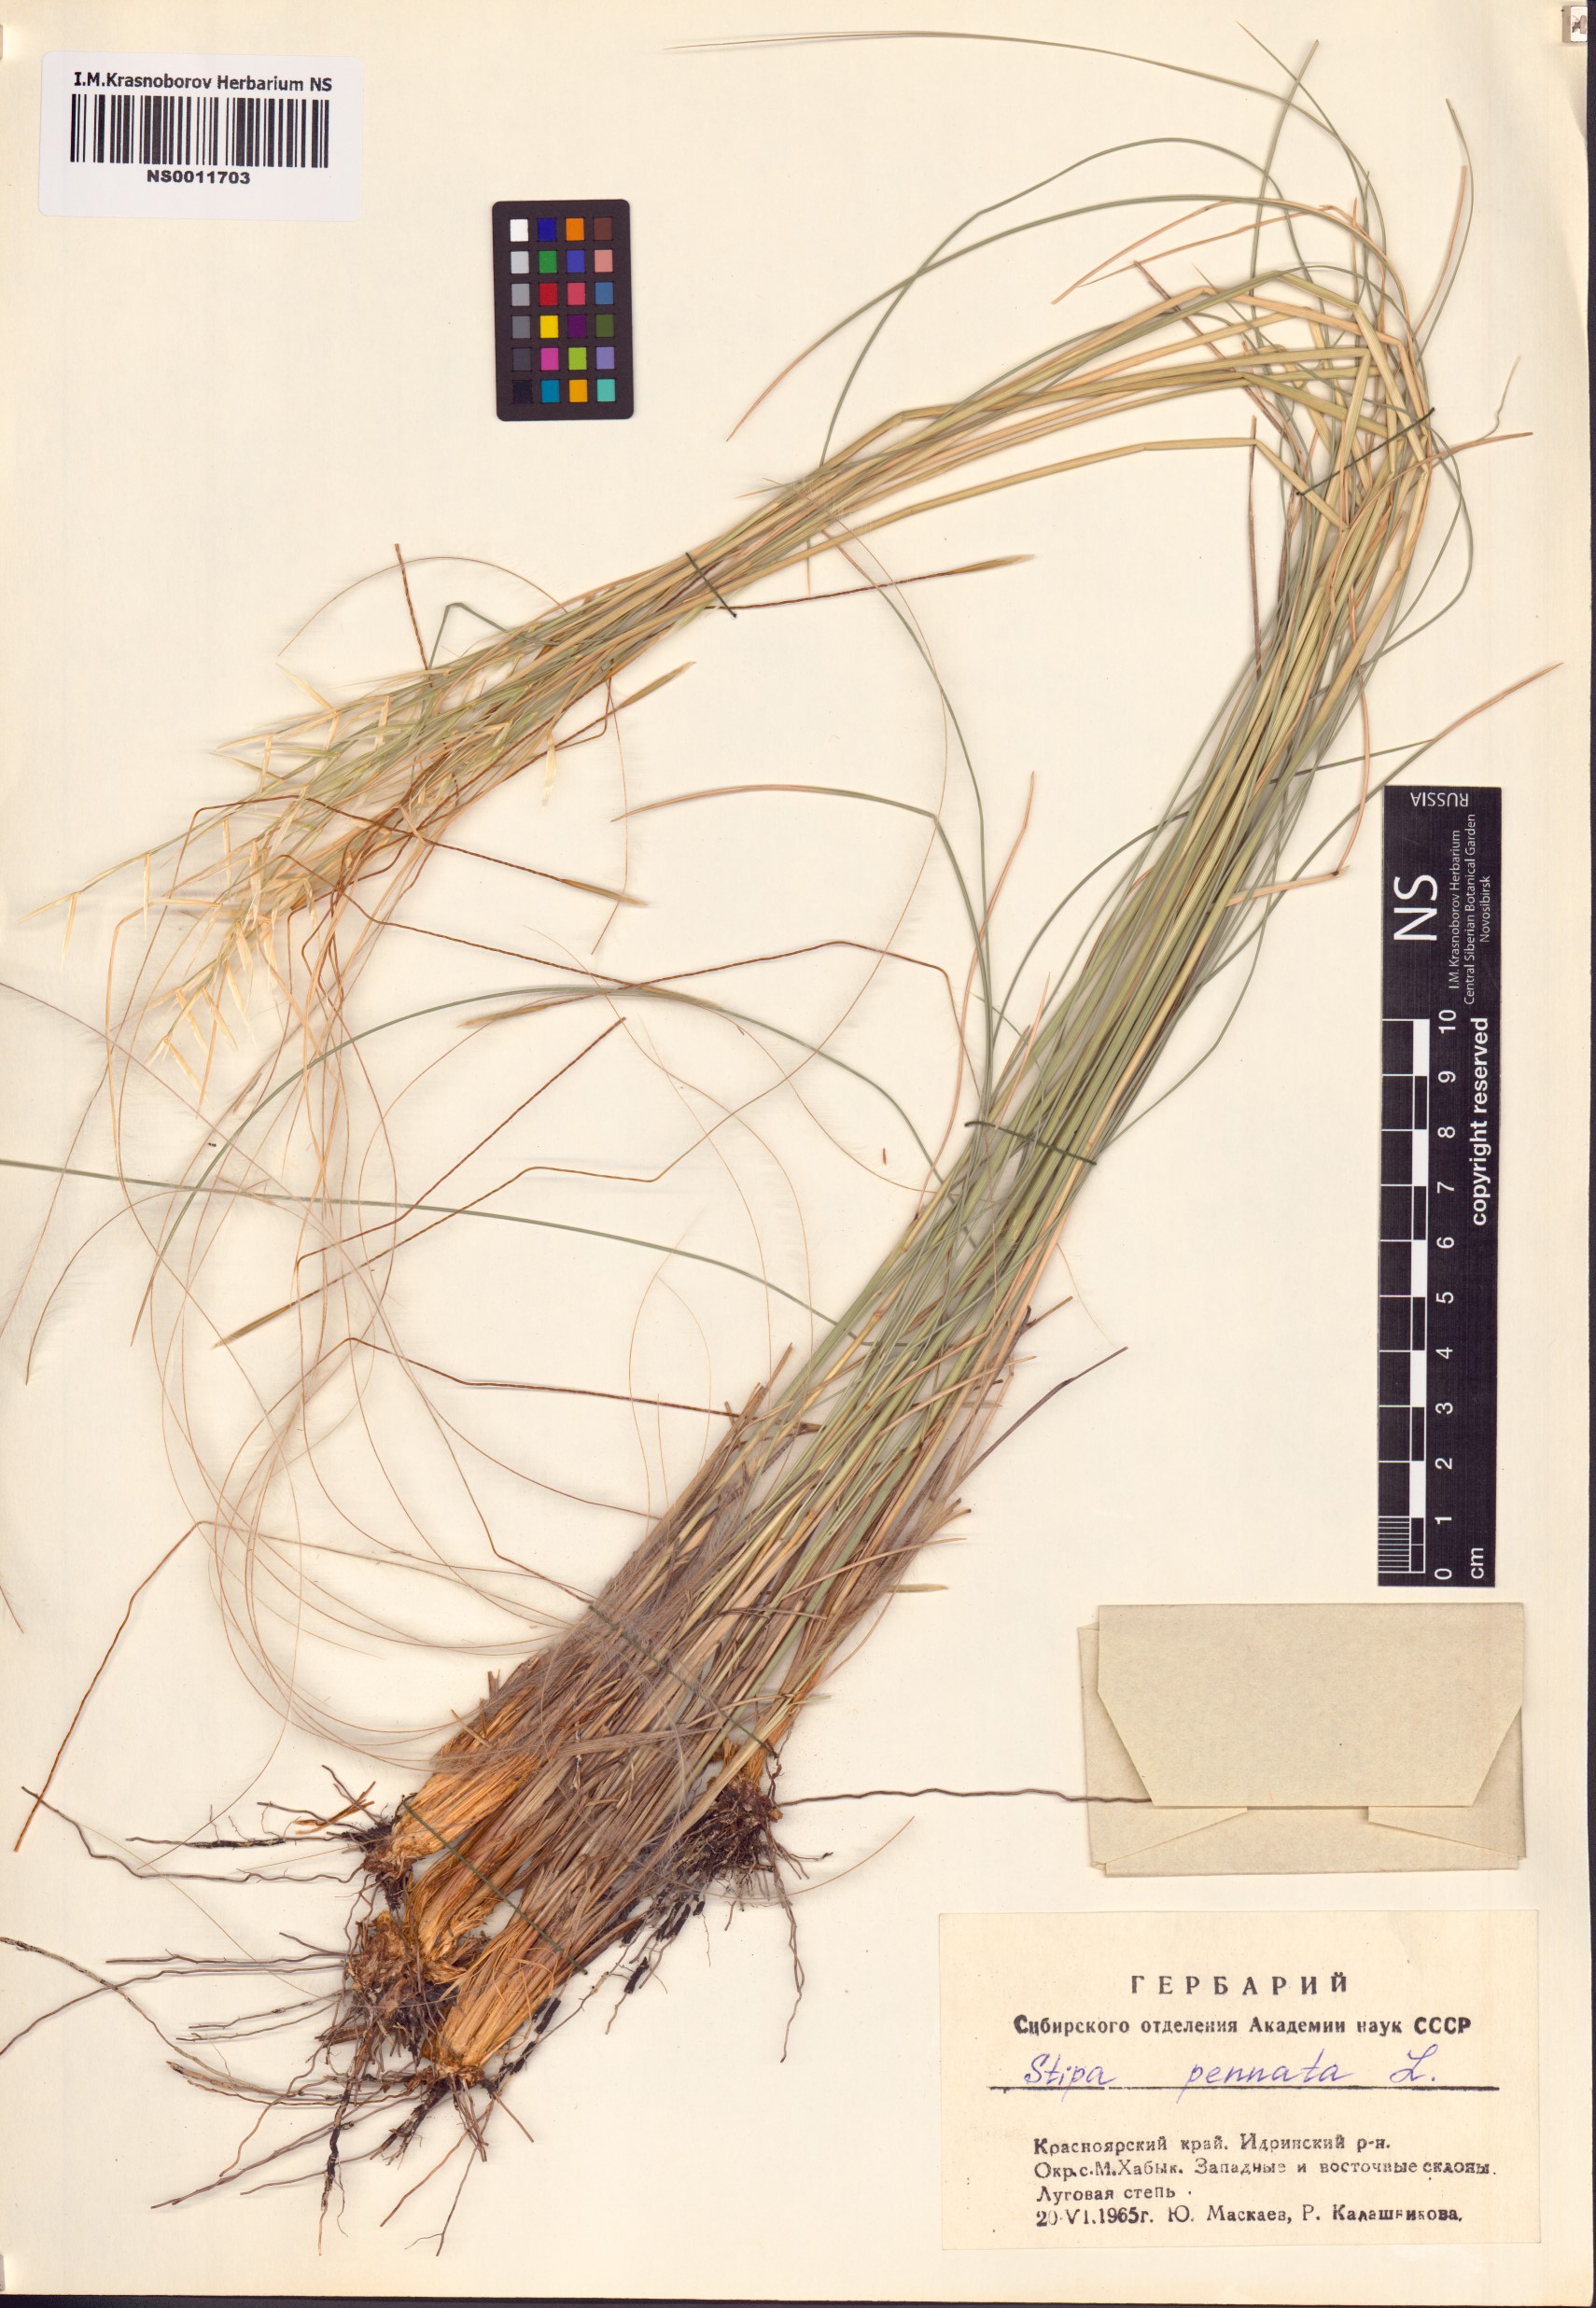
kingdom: Plantae
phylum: Tracheophyta
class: Liliopsida
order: Poales
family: Poaceae
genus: Stipa
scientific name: Stipa pennata
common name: European feather grass
